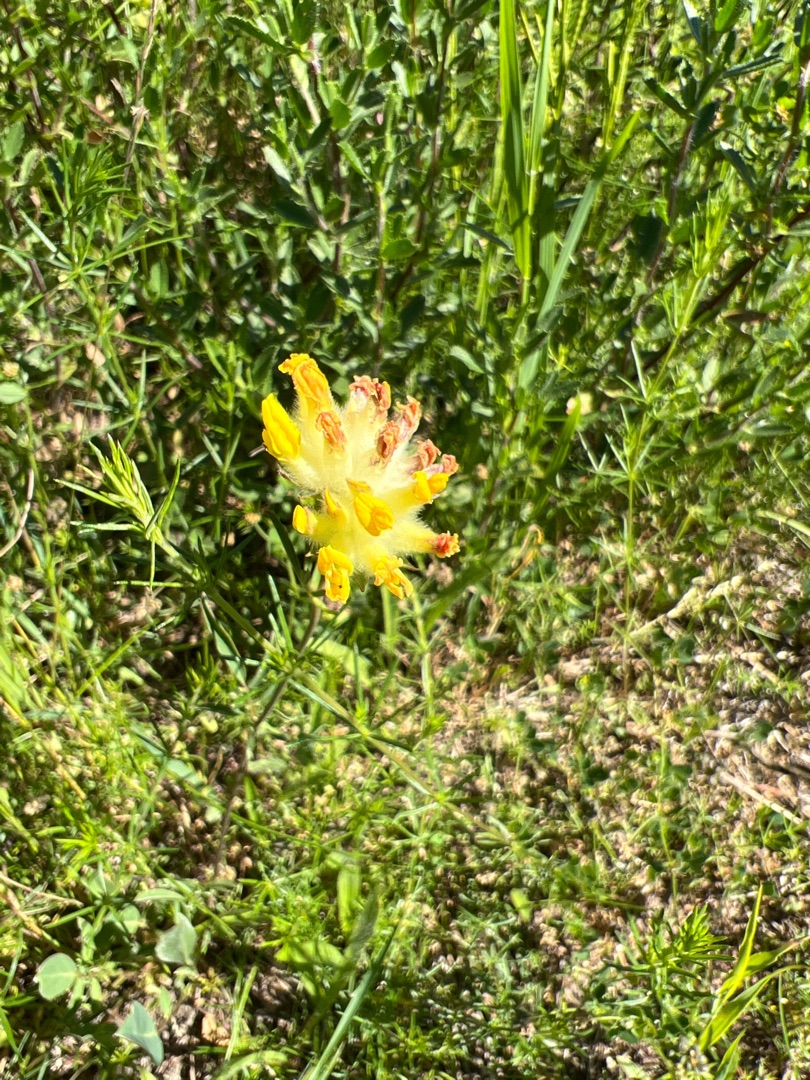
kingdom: Plantae
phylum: Tracheophyta
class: Magnoliopsida
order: Fabales
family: Fabaceae
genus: Anthyllis
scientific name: Anthyllis vulneraria
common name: Rundbælg
